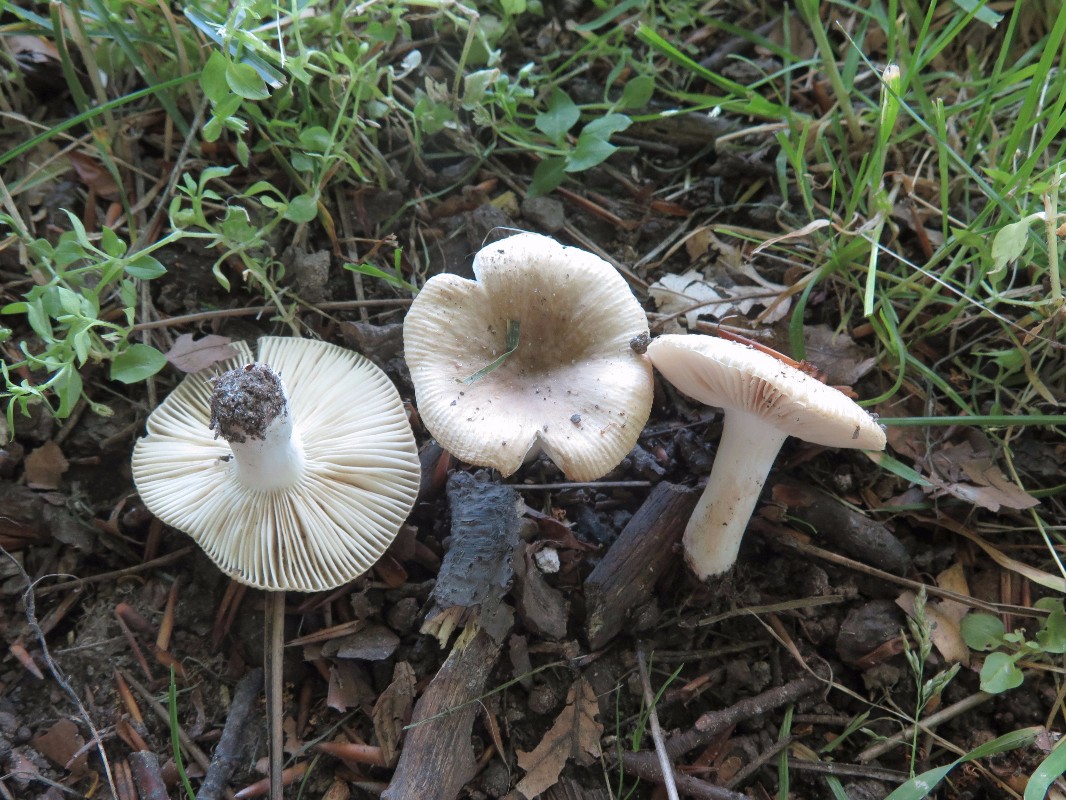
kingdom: Fungi
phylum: Basidiomycota
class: Agaricomycetes
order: Russulales
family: Russulaceae
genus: Russula
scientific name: Russula recondita
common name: mild kam-skørhat
